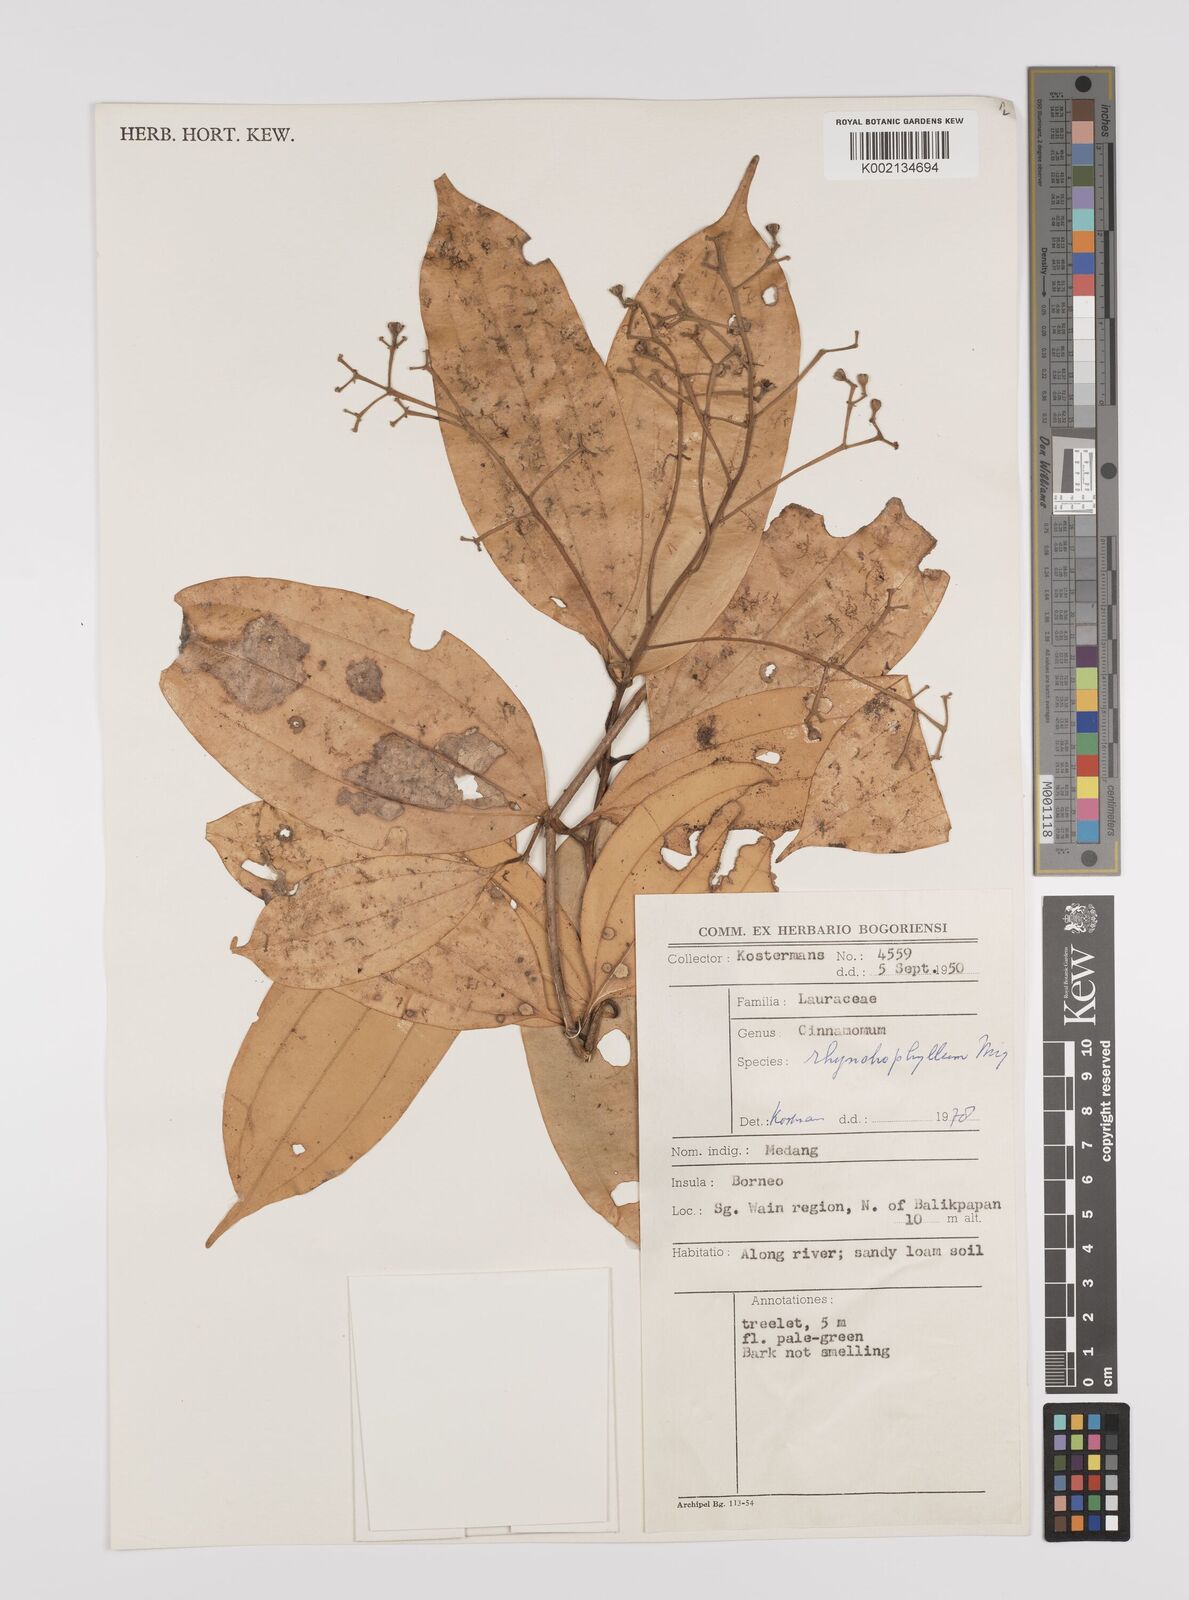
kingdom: Plantae
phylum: Tracheophyta
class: Magnoliopsida
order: Laurales
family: Lauraceae
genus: Cinnamomum
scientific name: Cinnamomum rhynchophyllum
